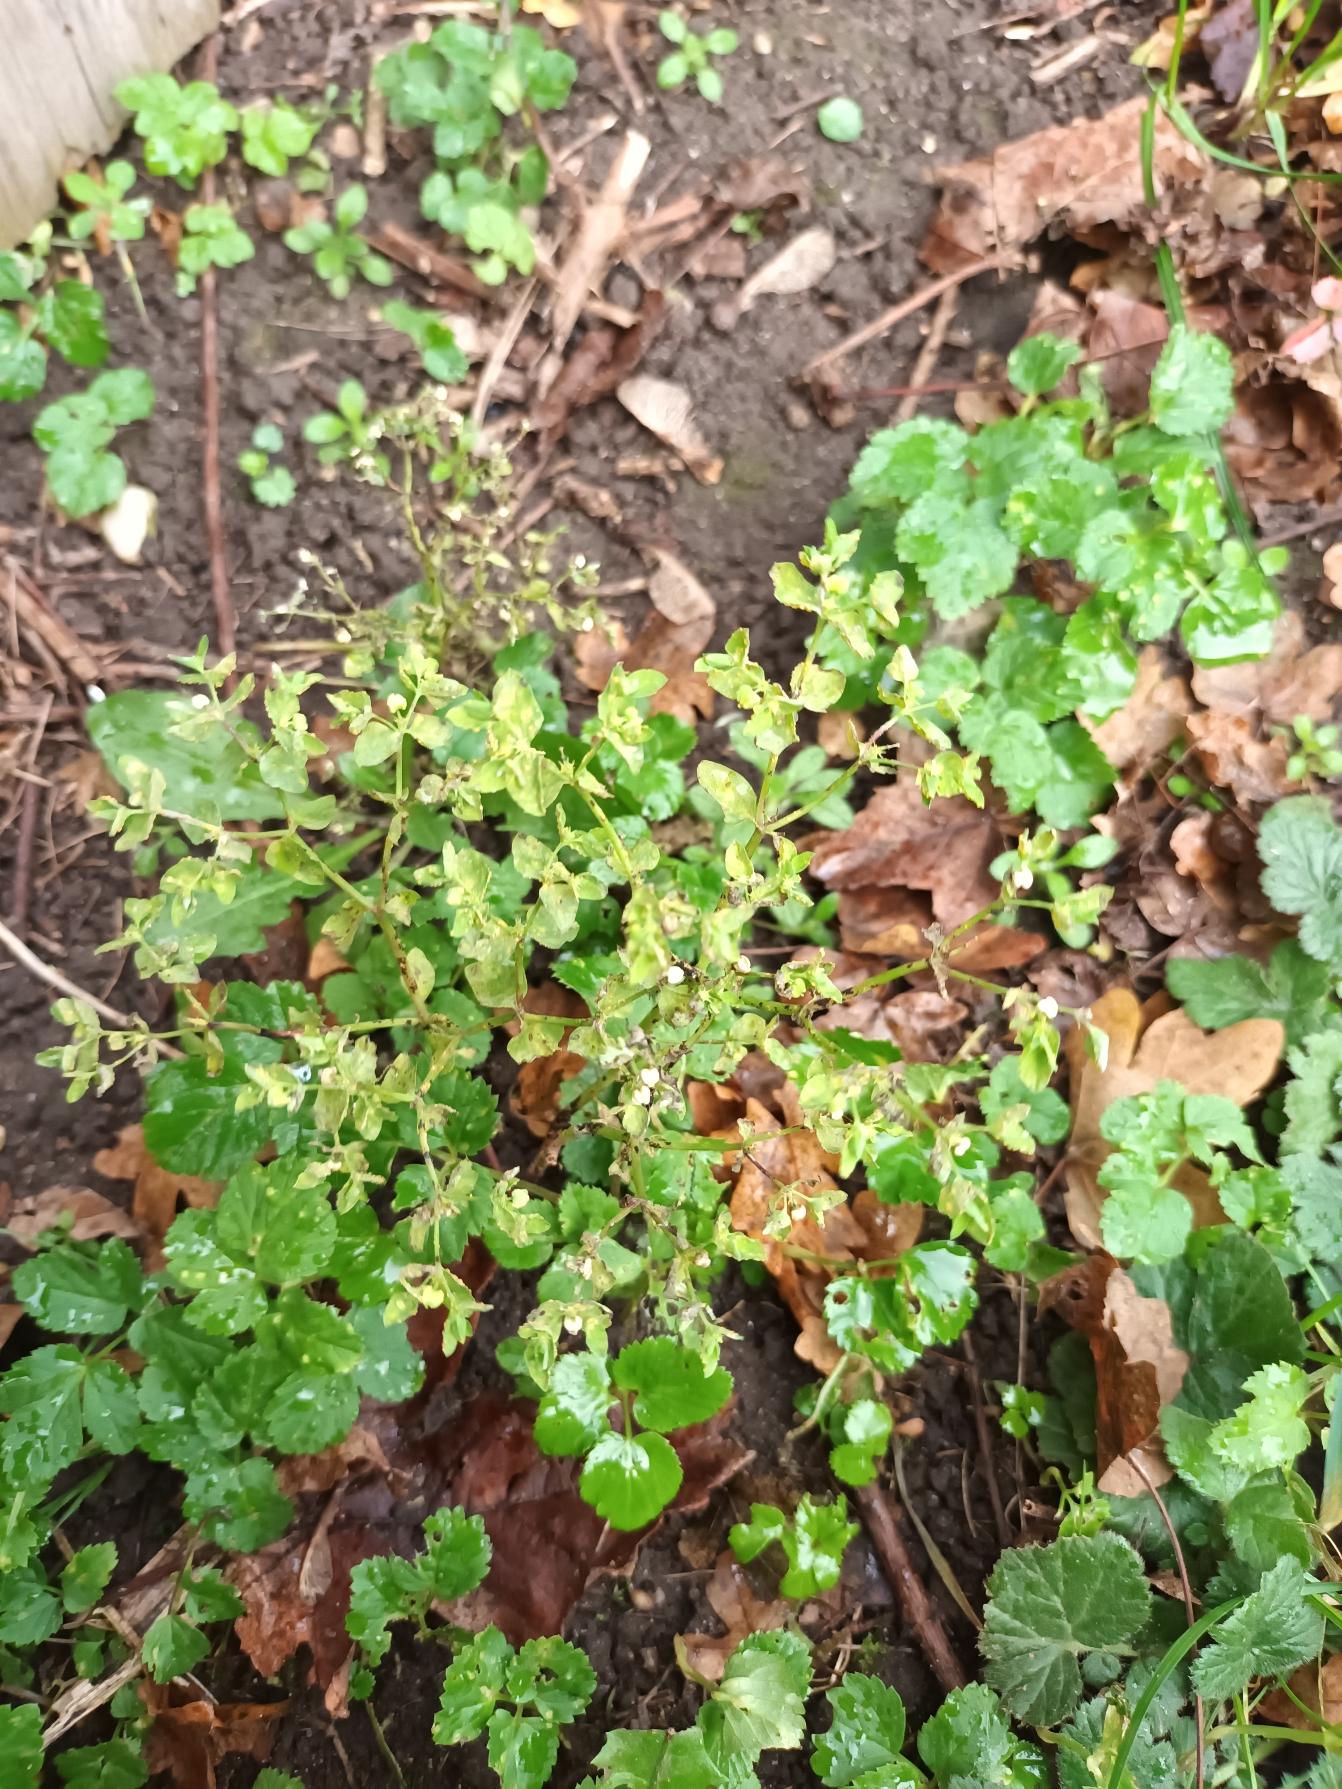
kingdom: Plantae
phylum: Tracheophyta
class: Magnoliopsida
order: Malpighiales
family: Euphorbiaceae
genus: Euphorbia
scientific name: Euphorbia peplus
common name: Gaffel-vortemælk
